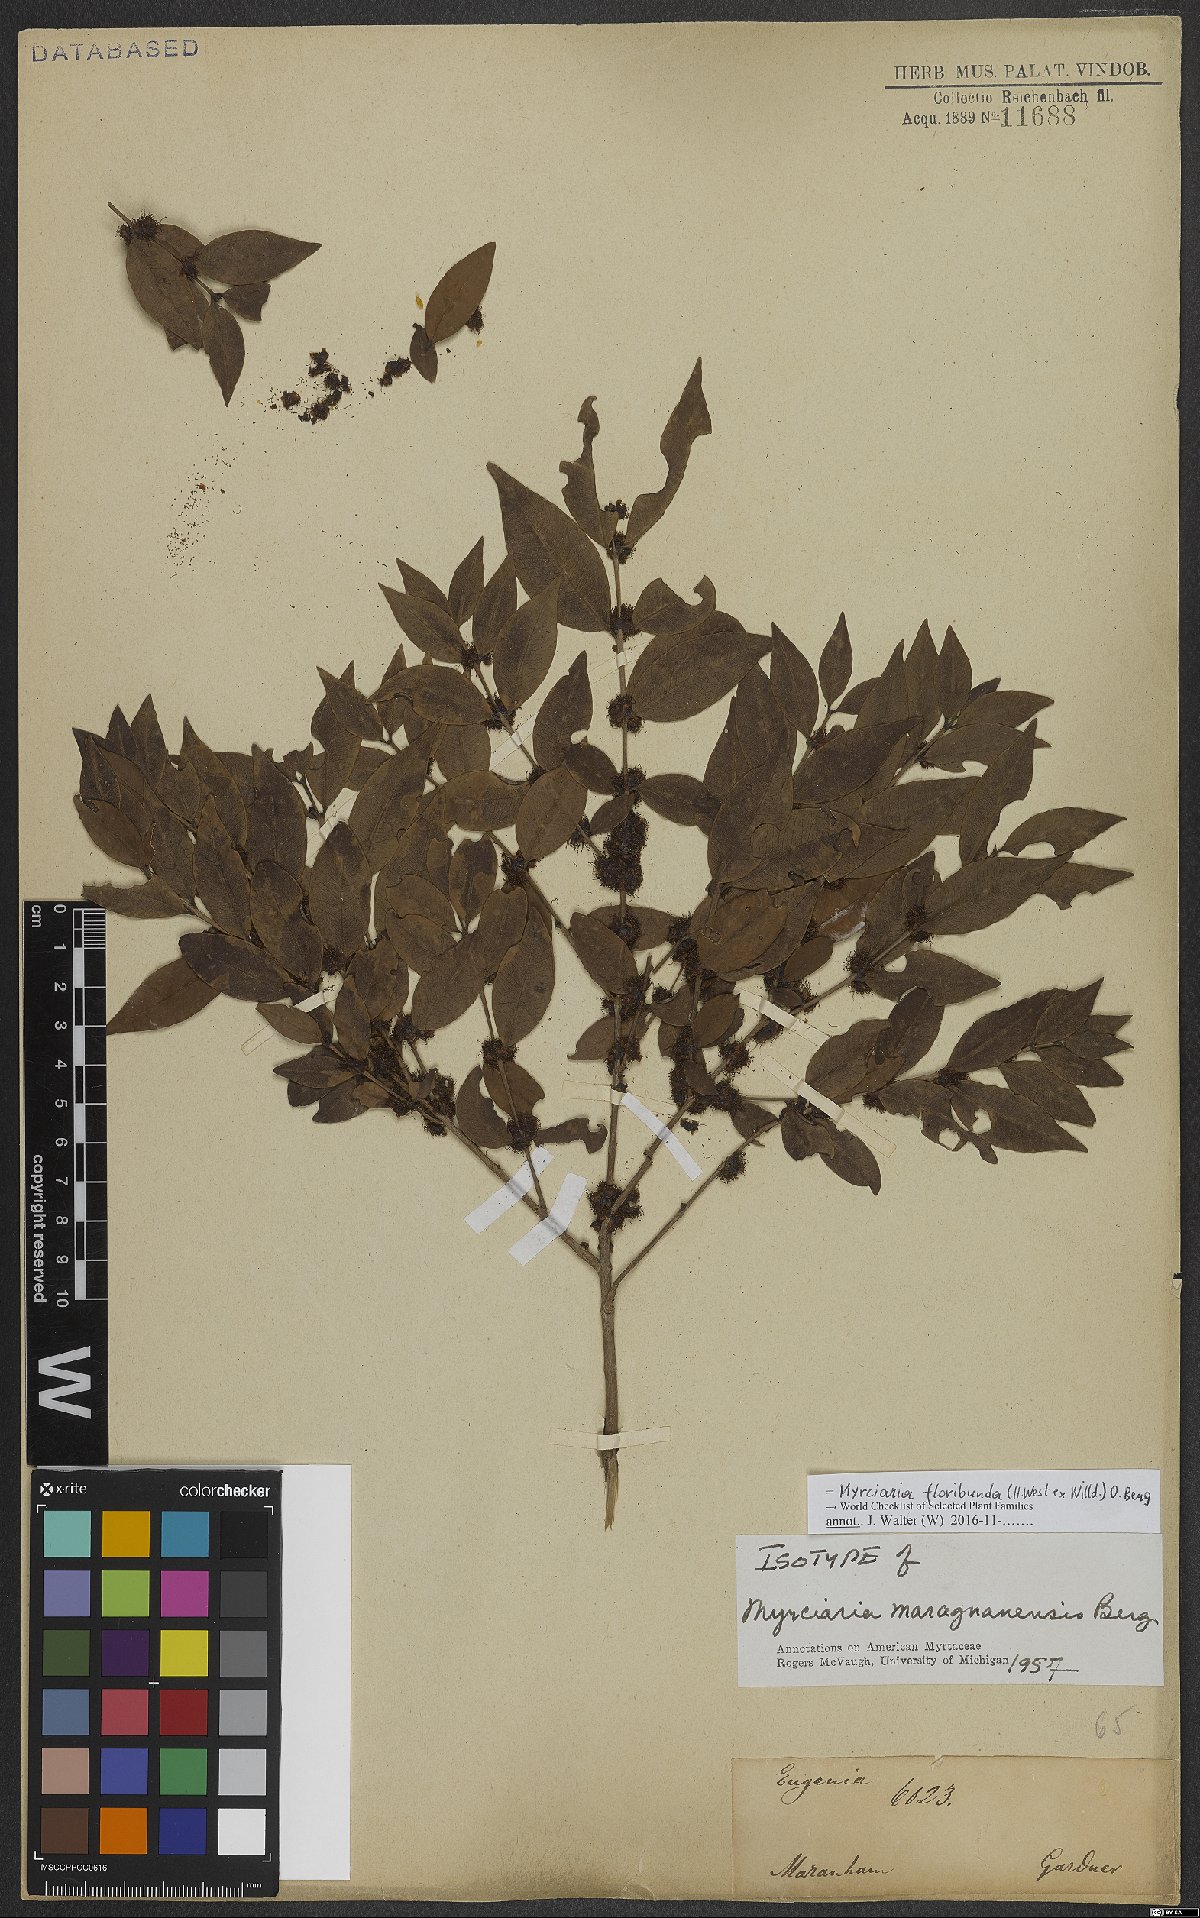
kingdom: Plantae
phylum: Tracheophyta
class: Magnoliopsida
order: Myrtales
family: Myrtaceae
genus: Myrciaria
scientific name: Myrciaria floribunda
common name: Guavaberry
